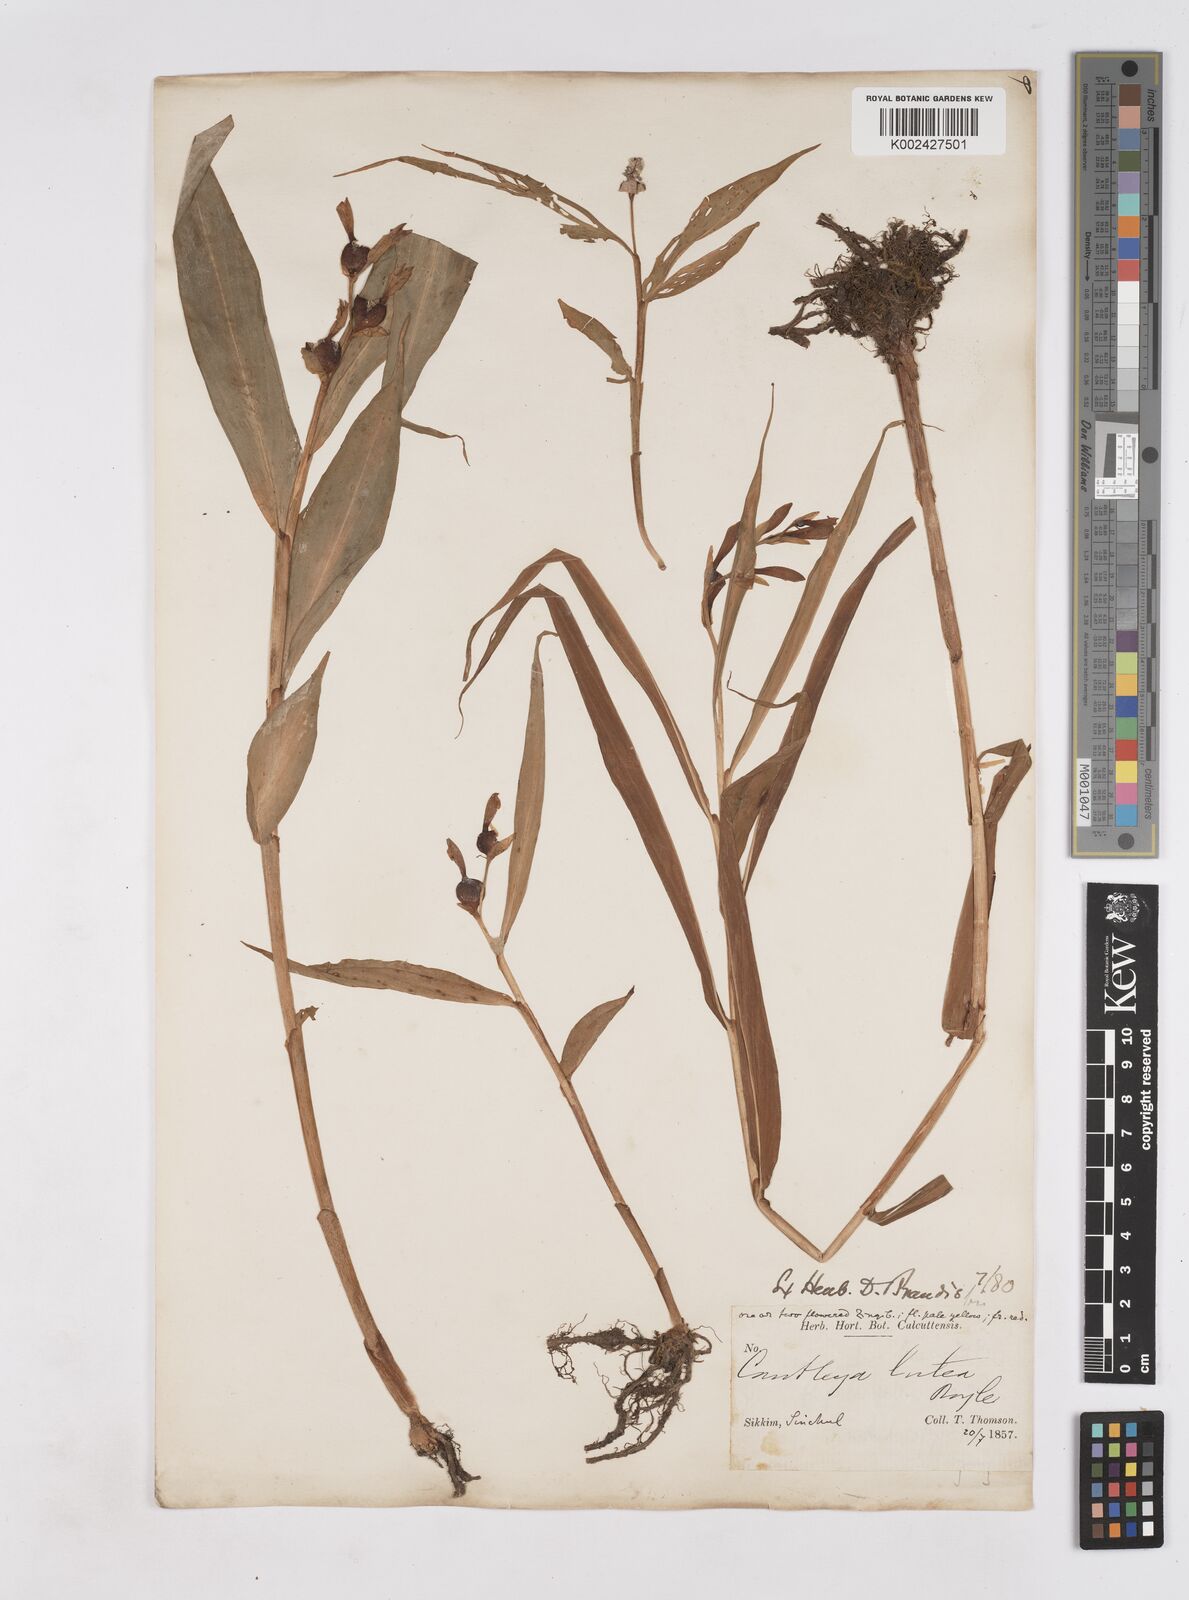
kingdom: Plantae
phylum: Tracheophyta
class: Liliopsida
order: Zingiberales
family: Zingiberaceae
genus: Cautleya
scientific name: Cautleya gracilis
